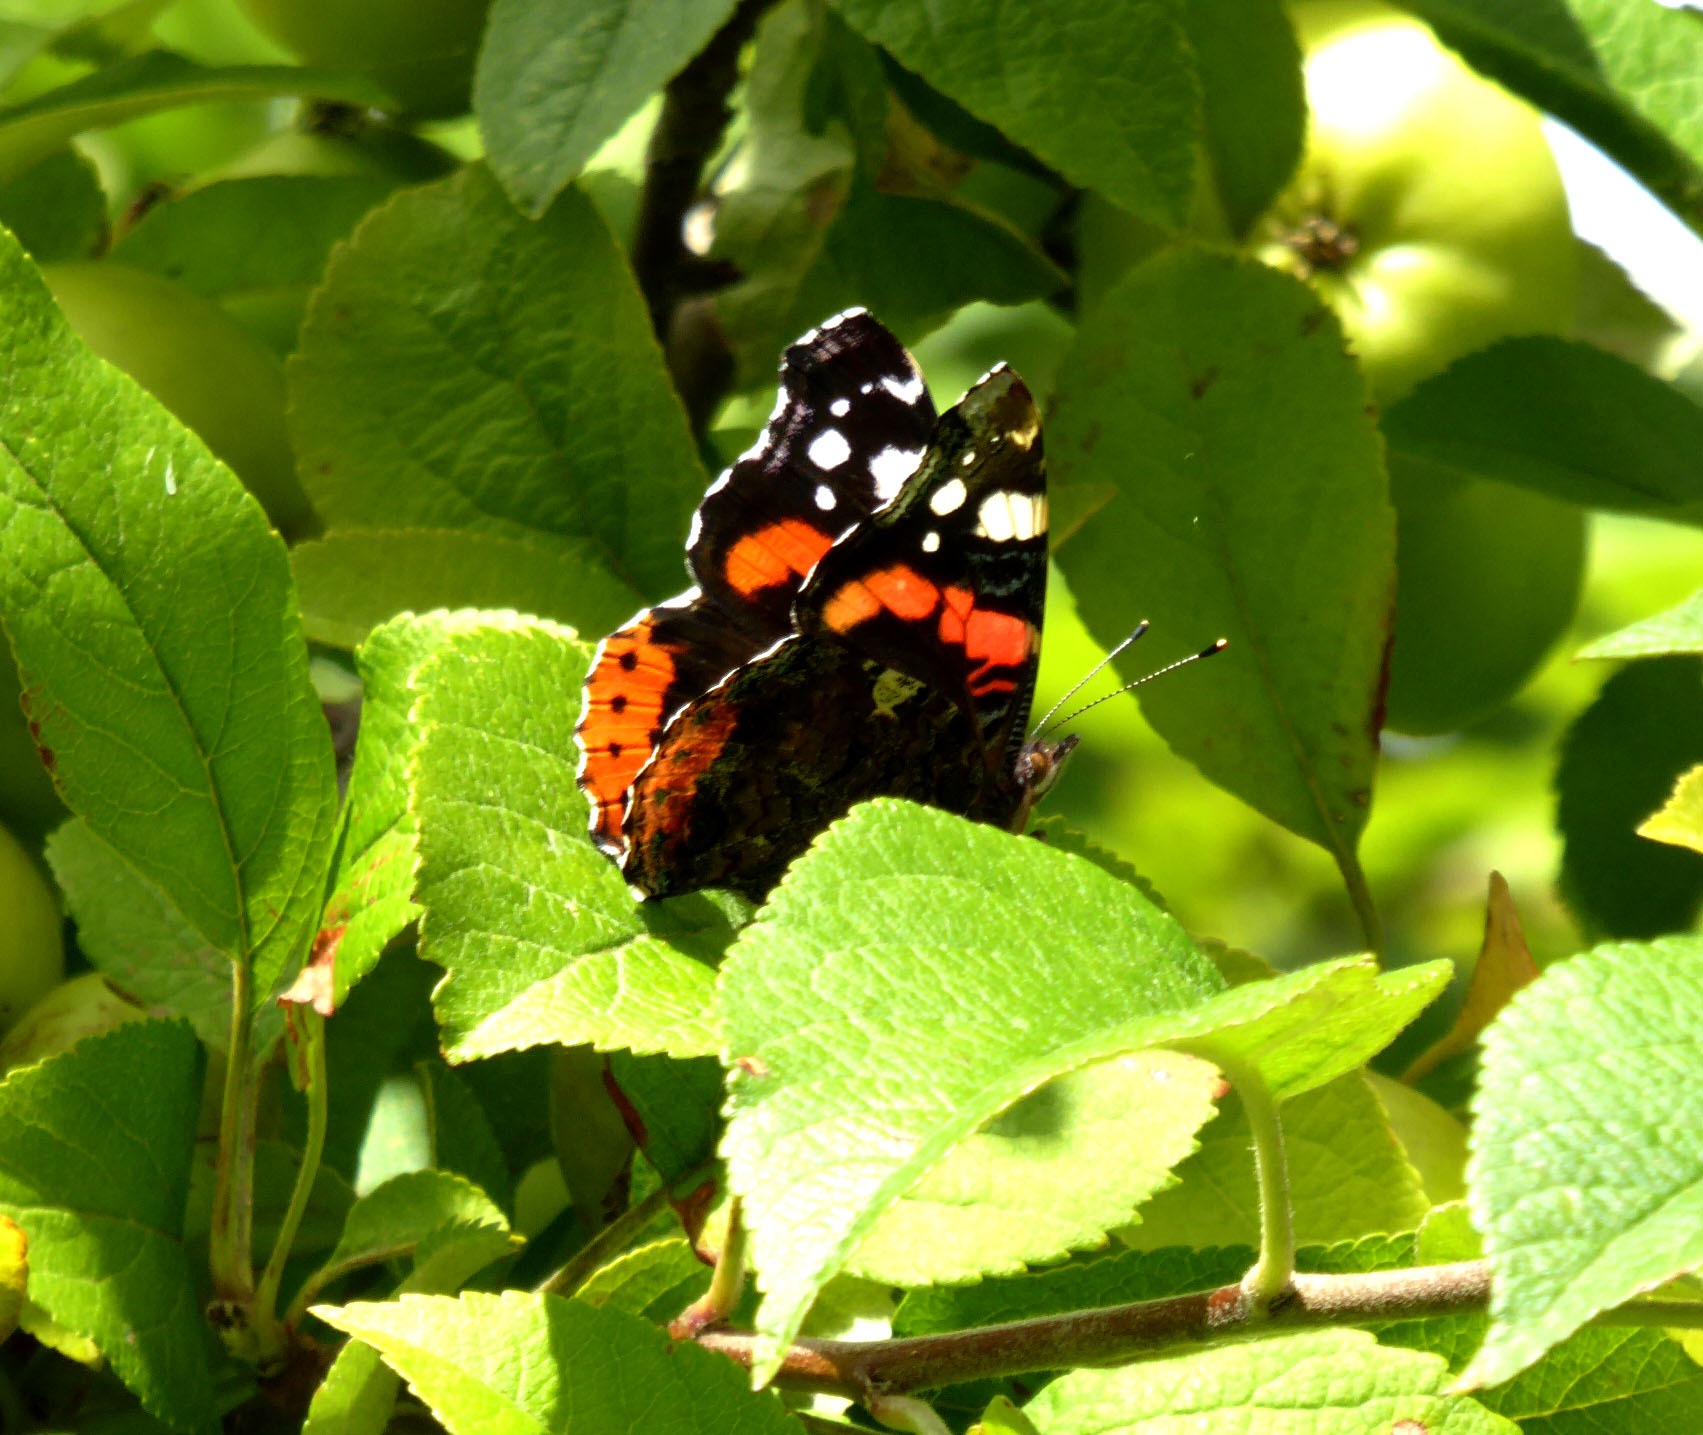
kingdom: Animalia
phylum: Arthropoda
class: Insecta
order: Lepidoptera
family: Nymphalidae
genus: Vanessa
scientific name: Vanessa atalanta
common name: Admiral
